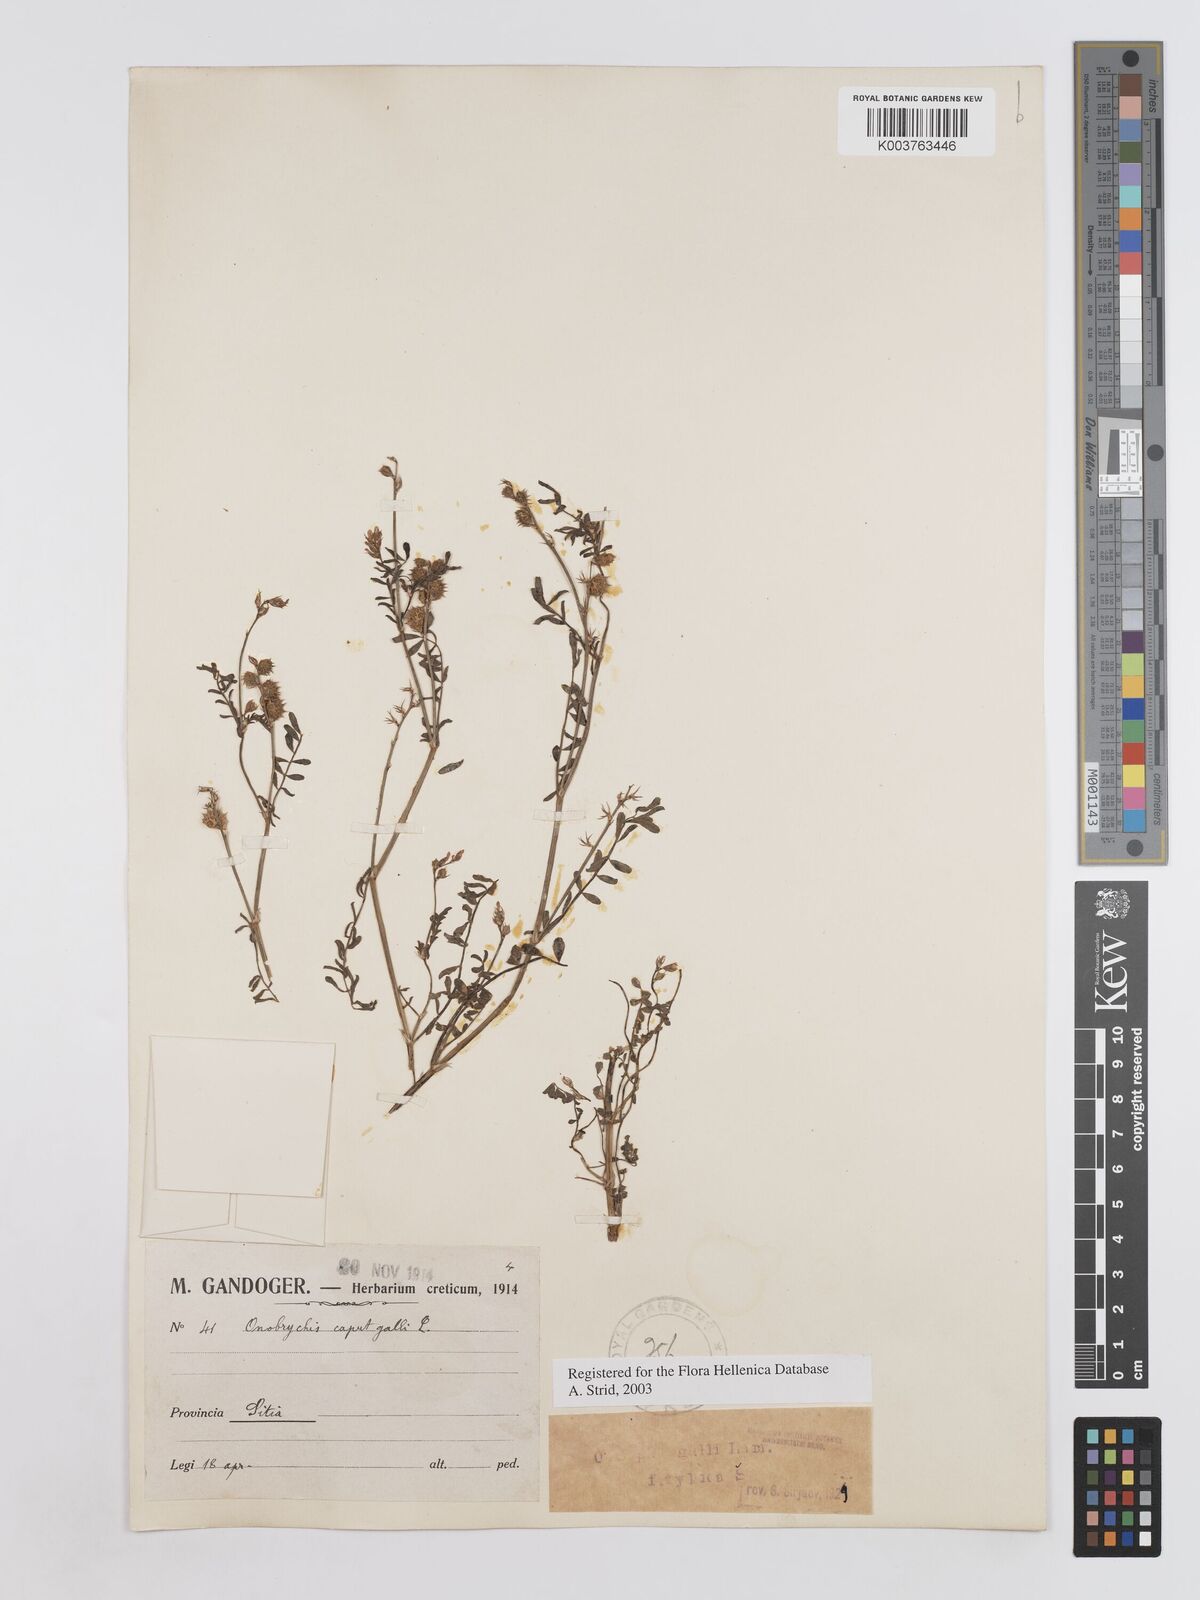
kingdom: Plantae
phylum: Tracheophyta
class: Magnoliopsida
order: Fabales
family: Fabaceae
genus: Onobrychis
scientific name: Onobrychis caput-galli
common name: Cockscomb sainfoin
